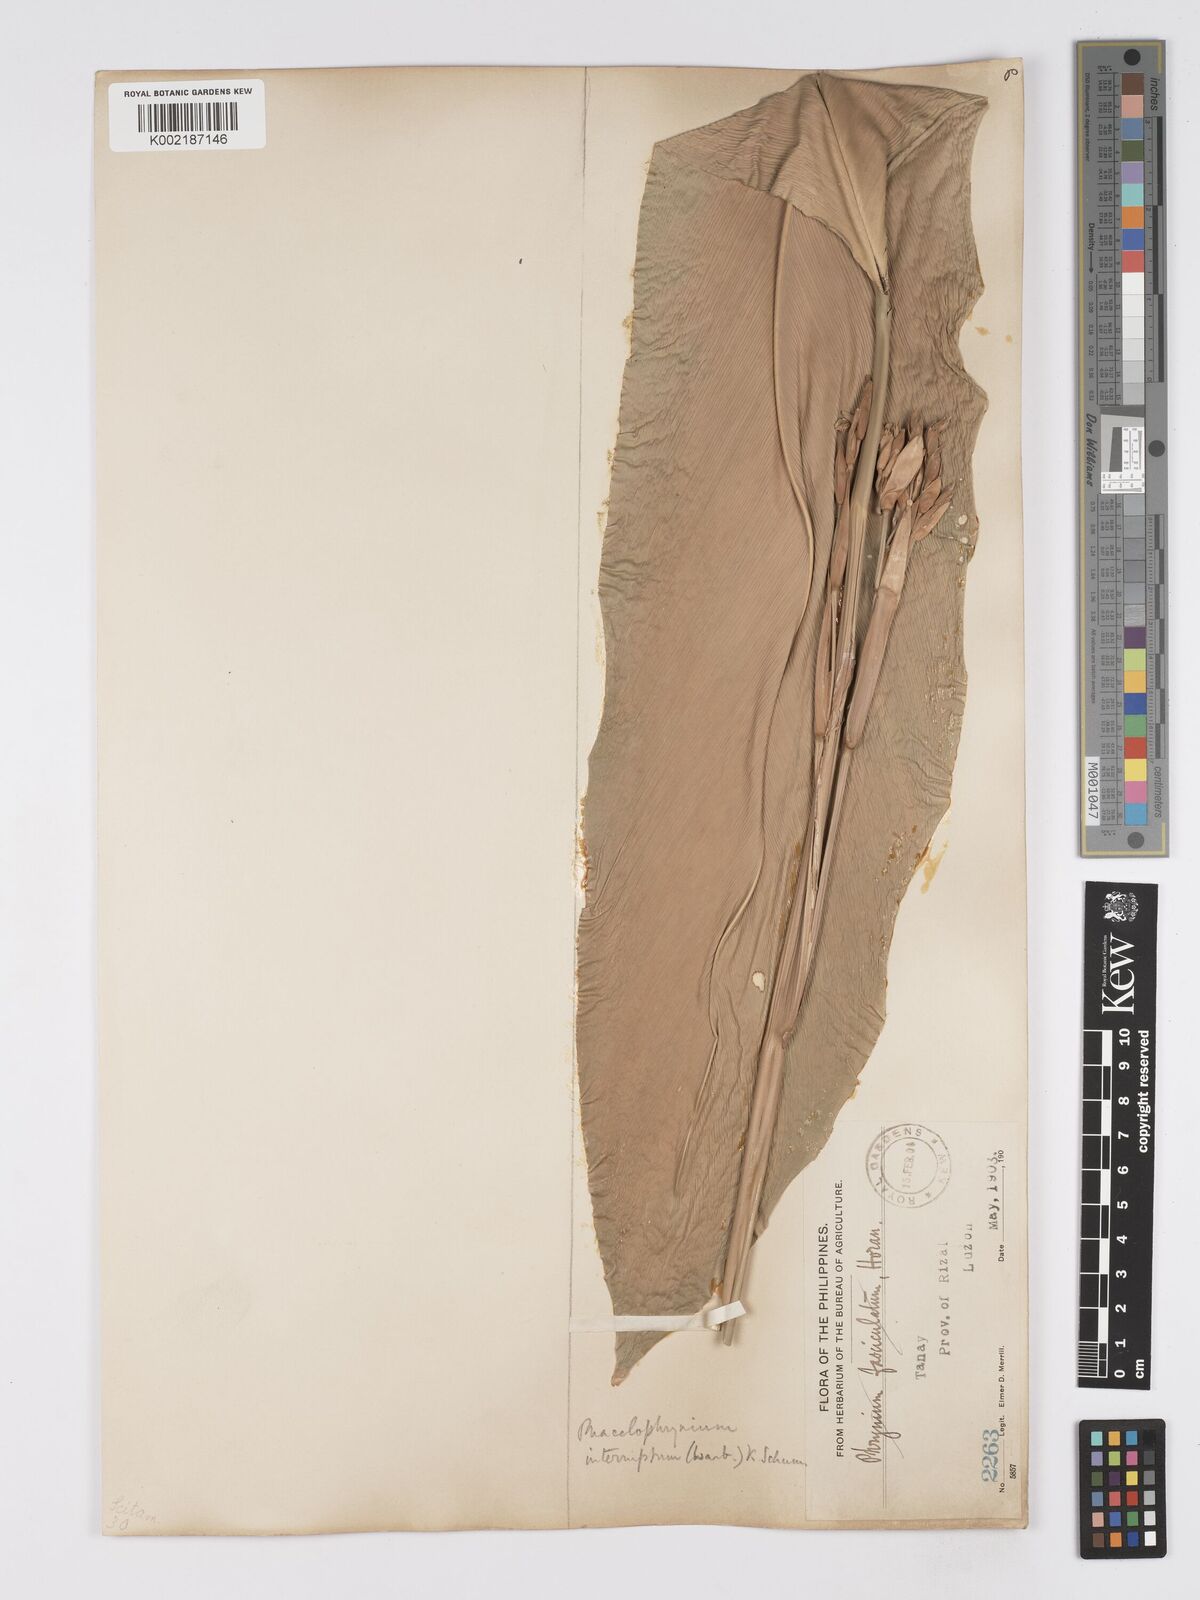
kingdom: Plantae
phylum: Tracheophyta
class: Liliopsida
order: Zingiberales
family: Marantaceae
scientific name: Marantaceae
